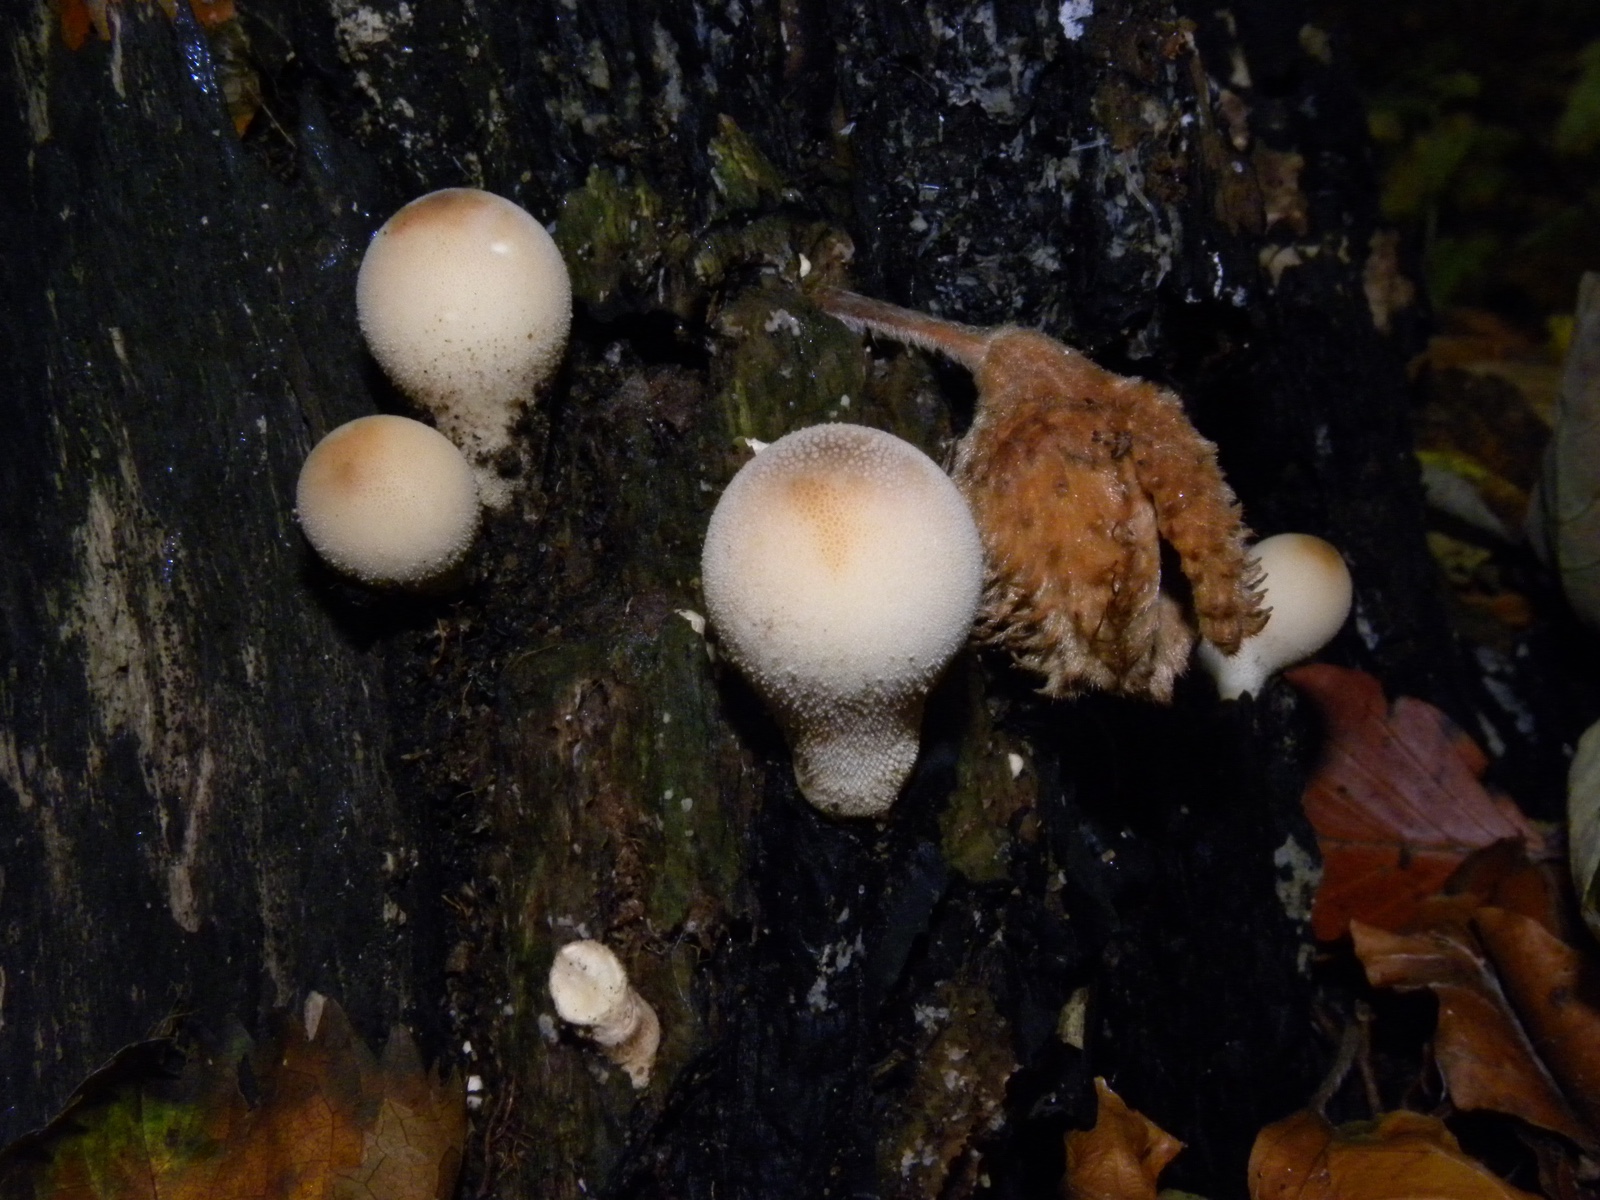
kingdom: Fungi
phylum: Basidiomycota
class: Agaricomycetes
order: Agaricales
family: Lycoperdaceae
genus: Apioperdon
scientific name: Apioperdon pyriforme
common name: pære-støvbold
